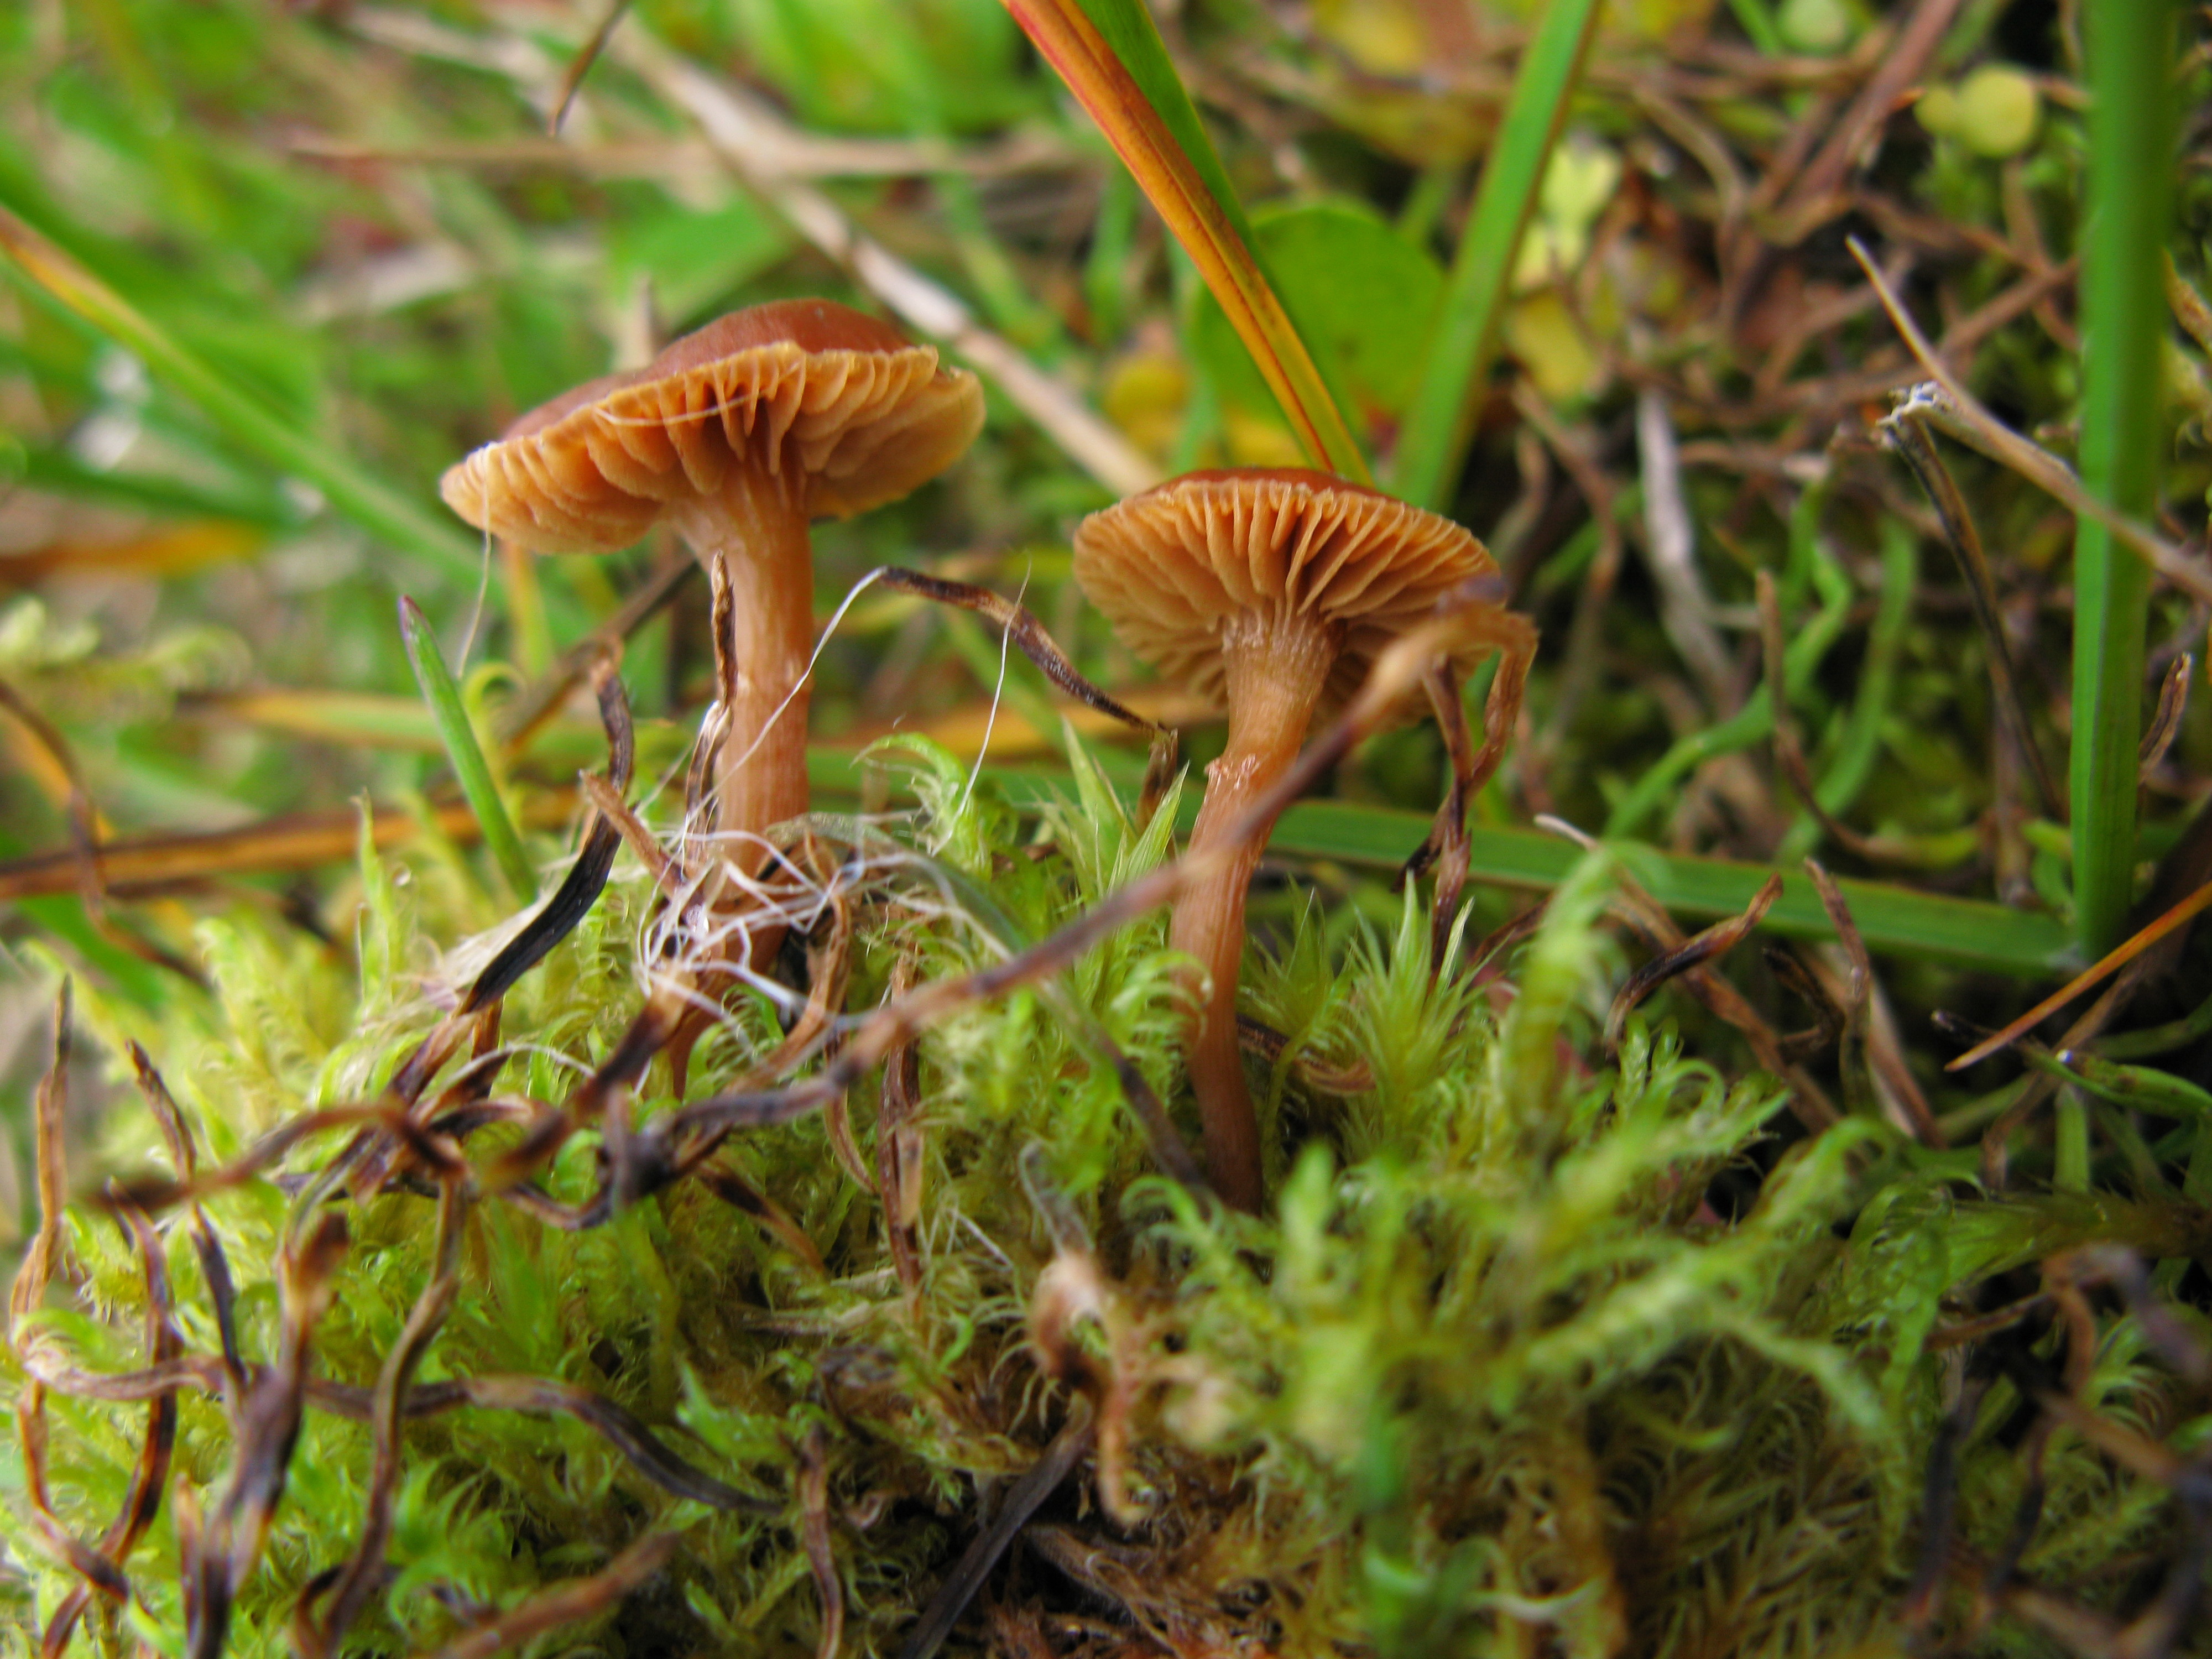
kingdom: Fungi
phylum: Basidiomycota
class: Agaricomycetes
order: Agaricales
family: Hymenogastraceae
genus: Galerina
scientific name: Galerina marginata
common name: Funeral bell
